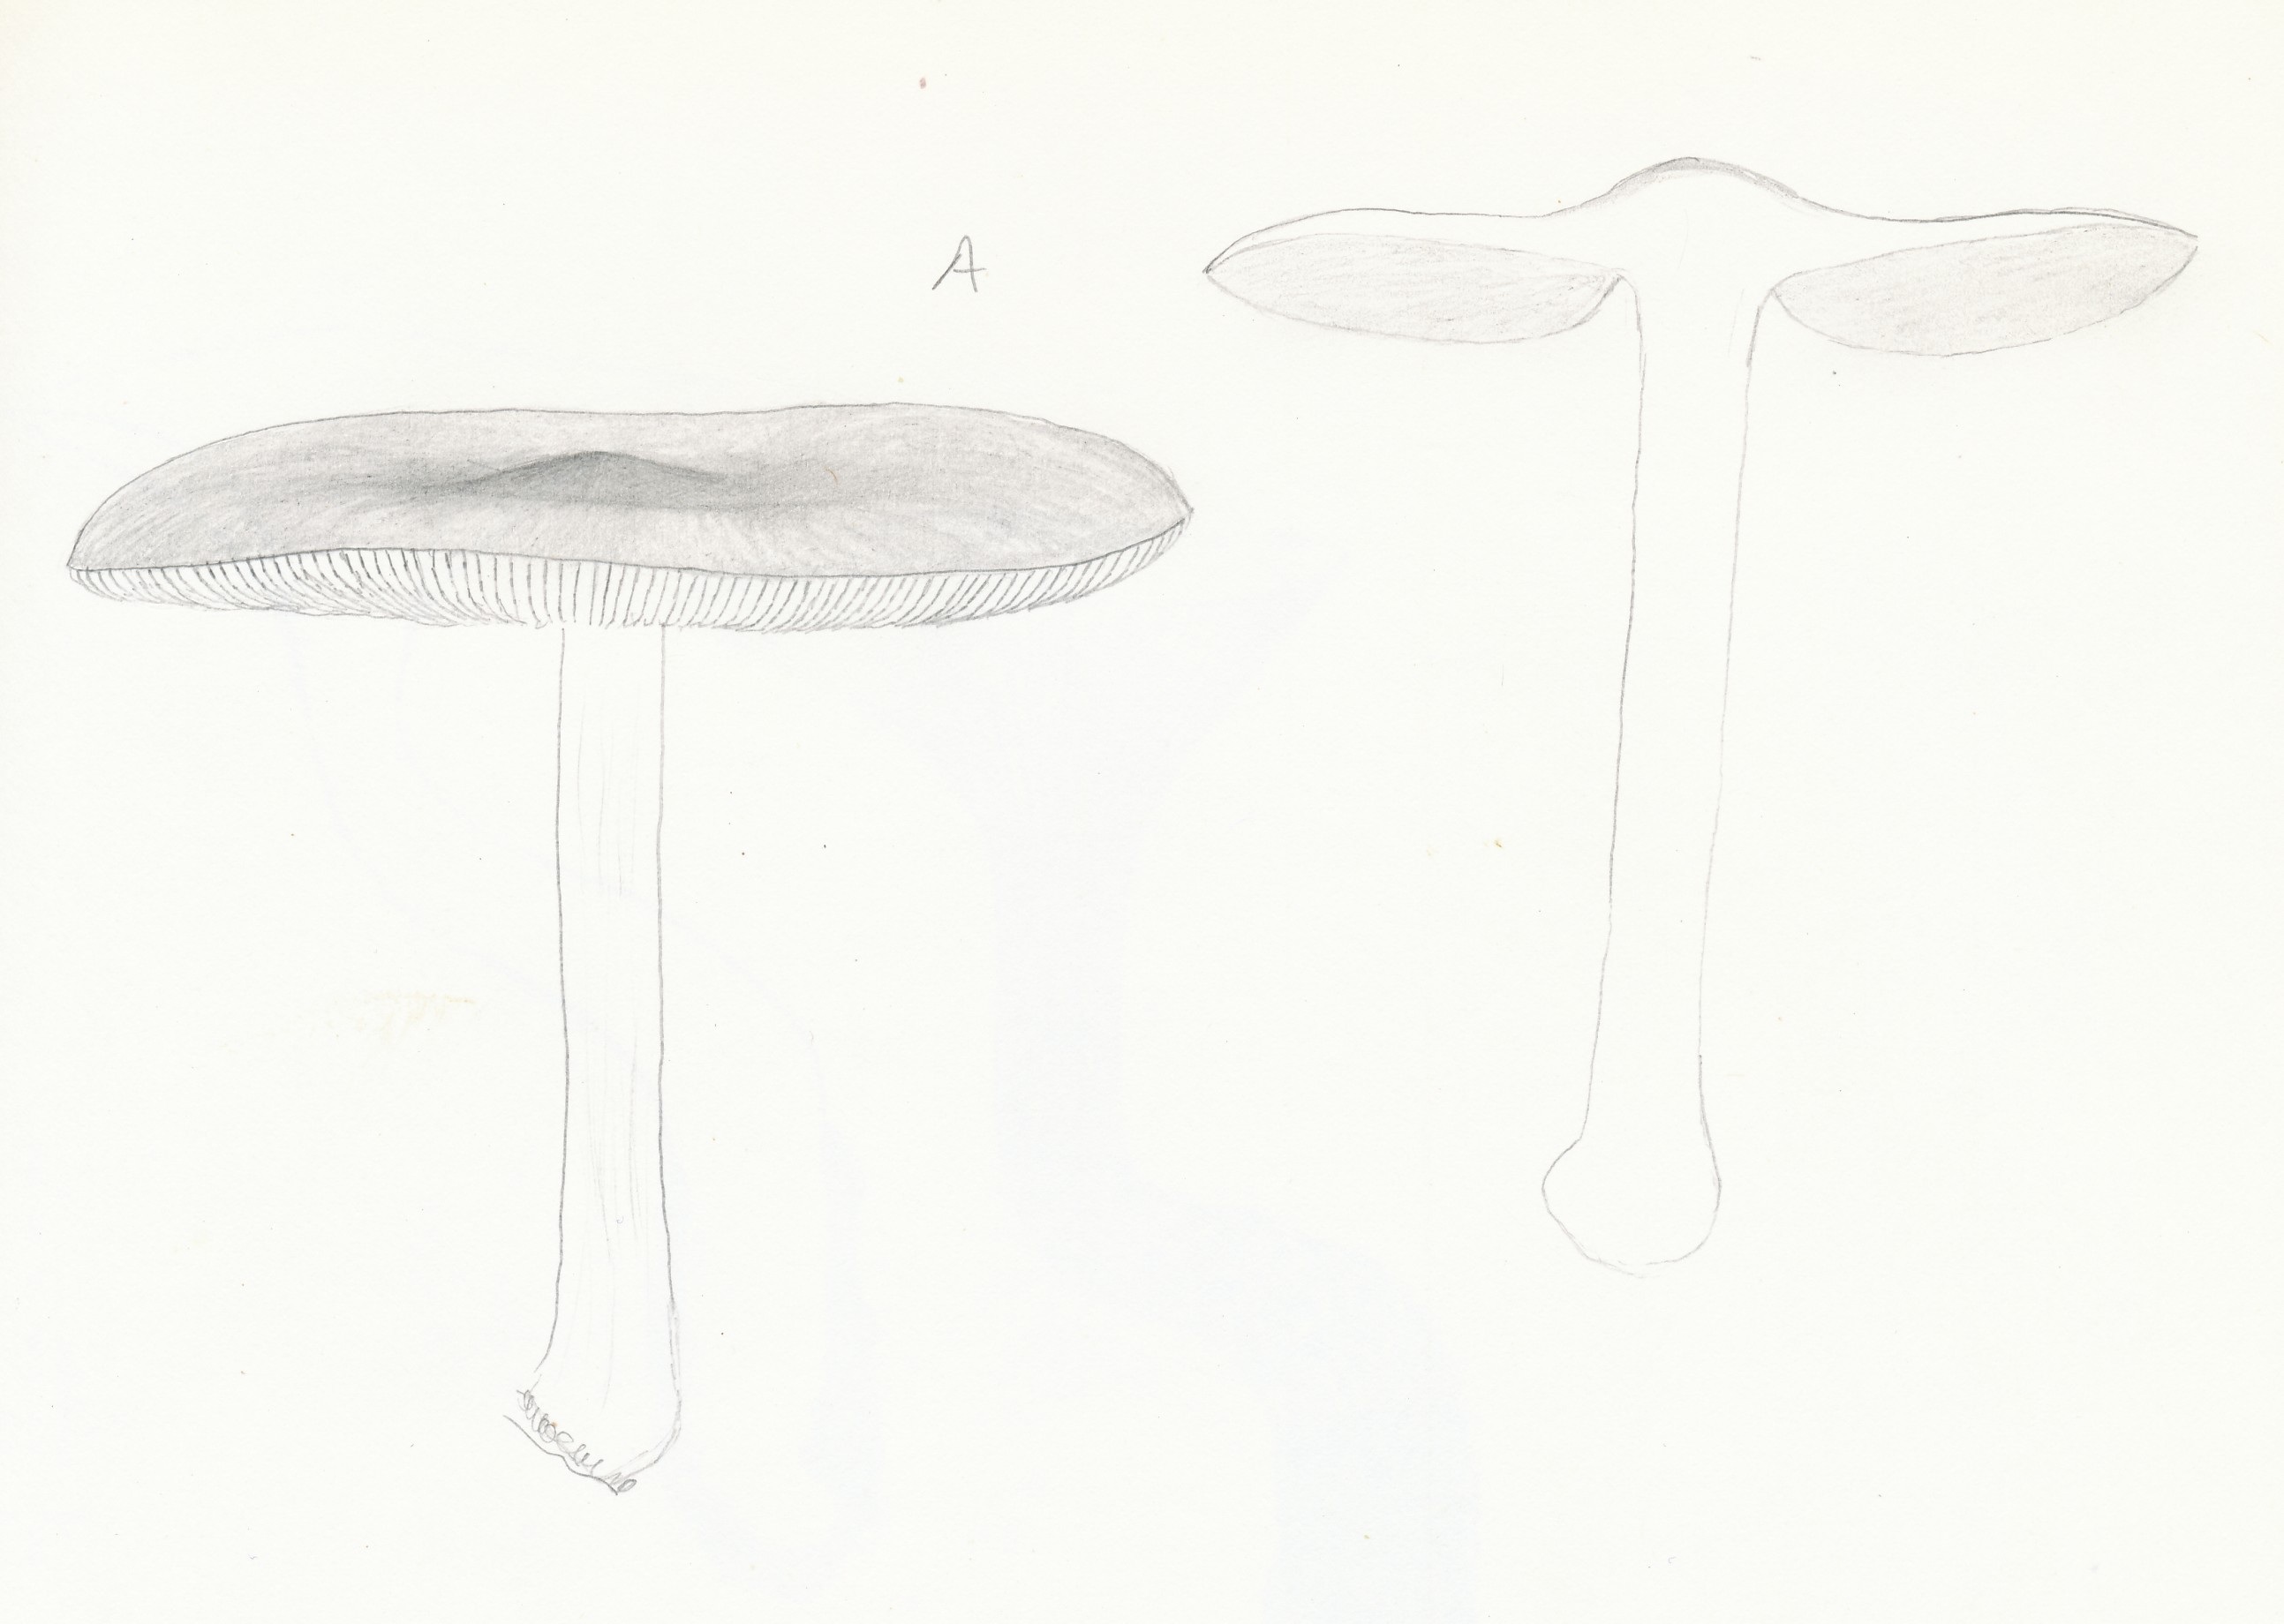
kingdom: Fungi
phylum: Basidiomycota
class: Agaricomycetes
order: Agaricales
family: Pluteaceae
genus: Pluteus
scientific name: Pluteus salicinus
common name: stiv skærmhat
